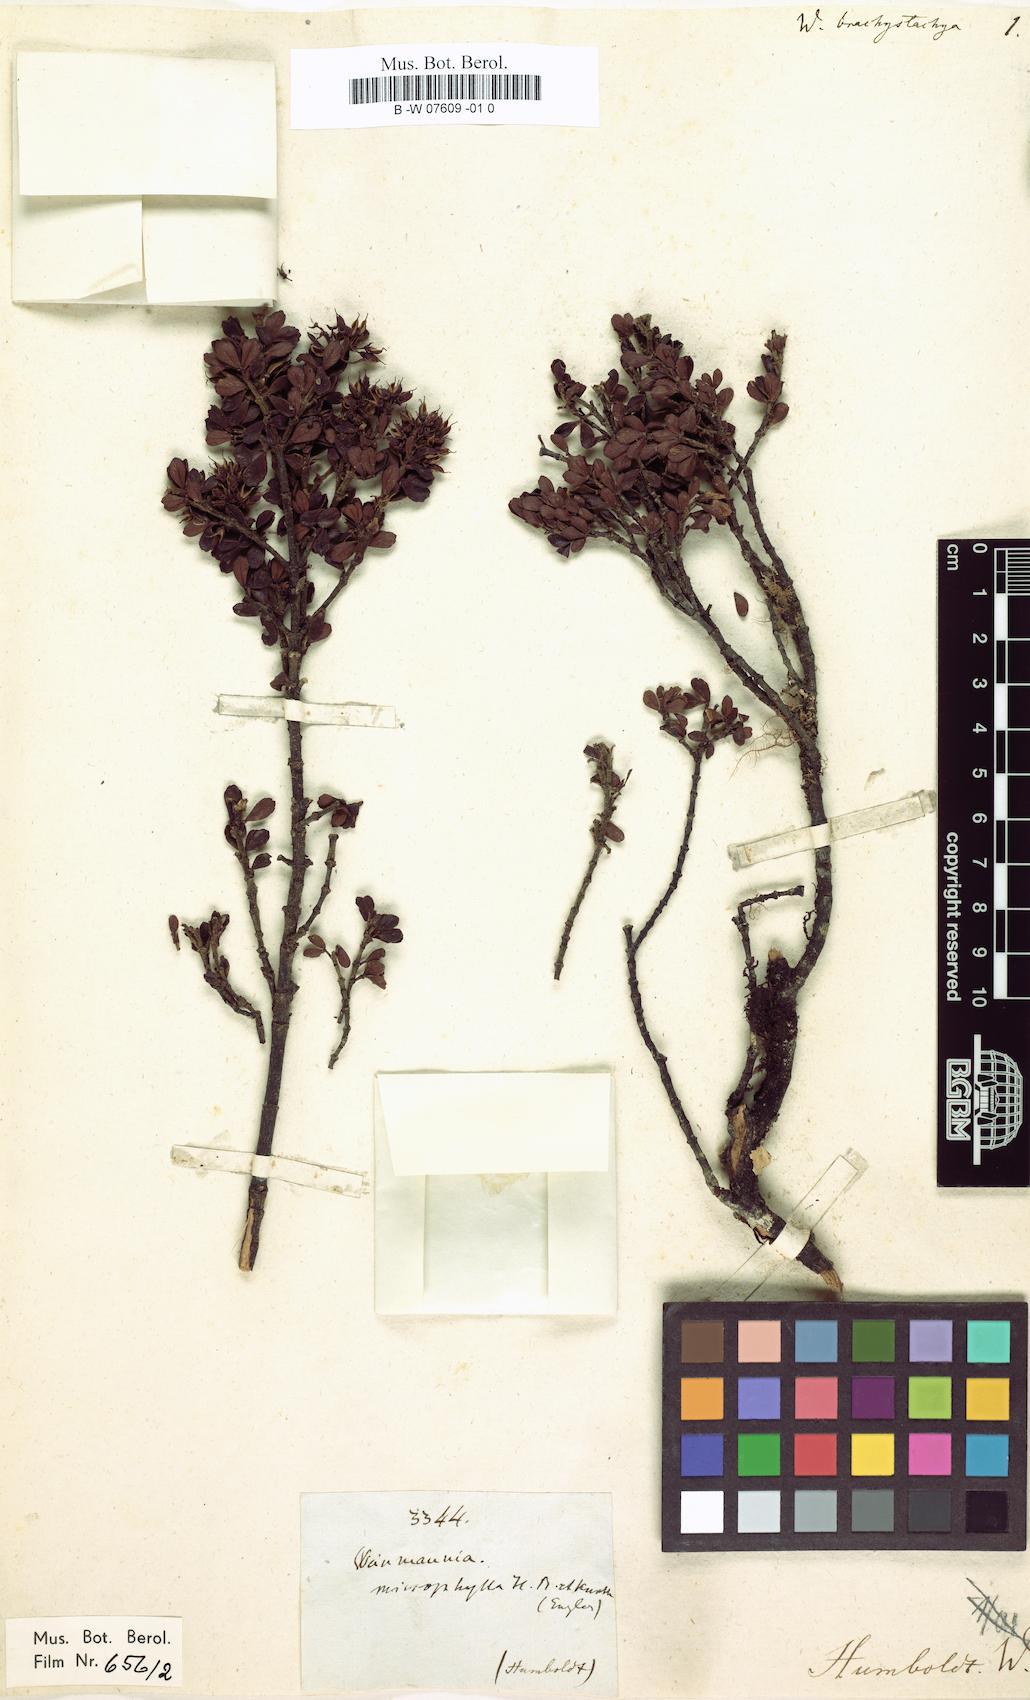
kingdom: Plantae
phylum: Tracheophyta
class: Magnoliopsida
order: Oxalidales
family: Cunoniaceae
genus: Weinmannia
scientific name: Weinmannia cochensis
